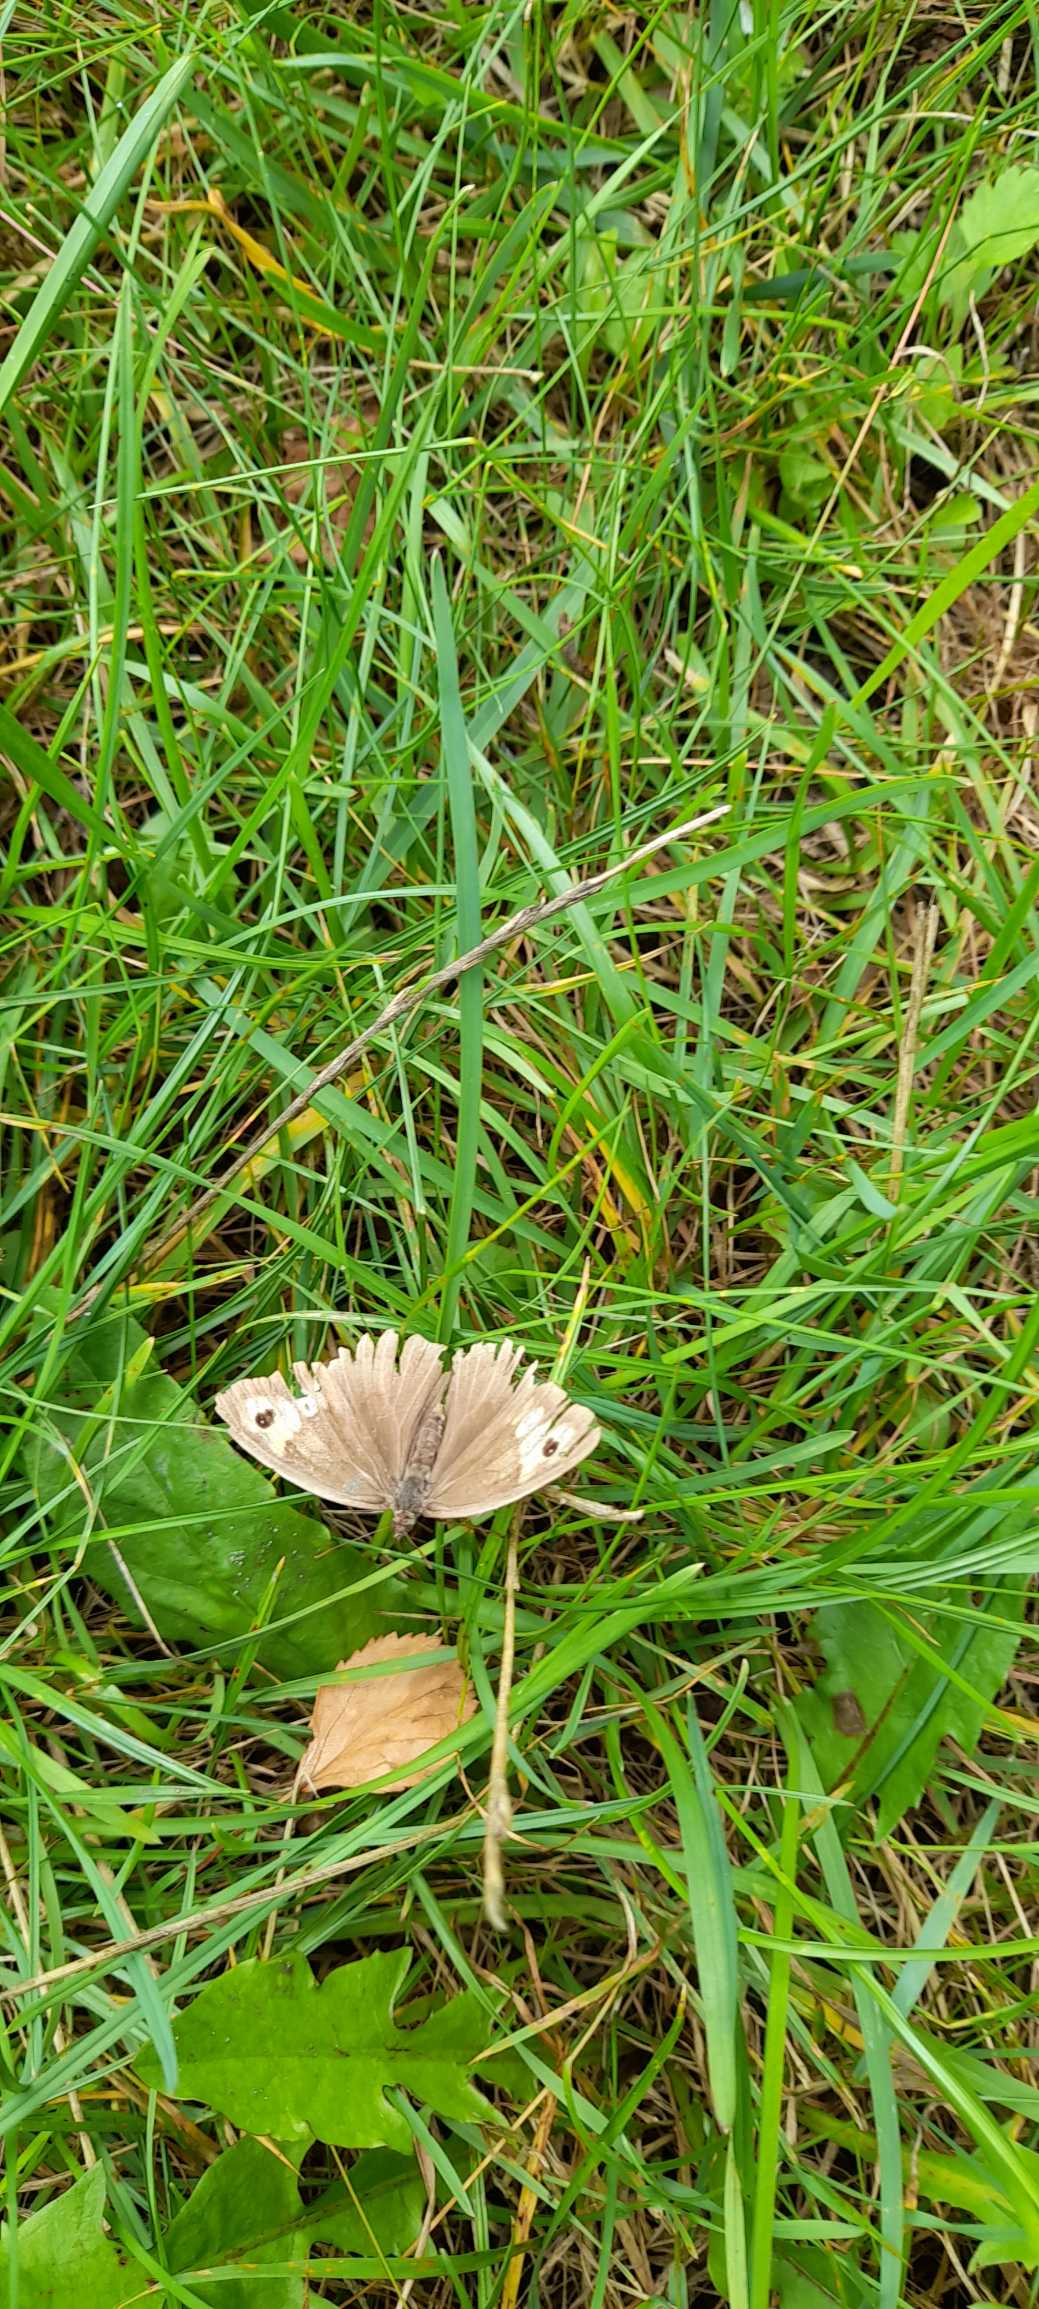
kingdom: Animalia
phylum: Arthropoda
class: Insecta
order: Lepidoptera
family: Nymphalidae
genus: Maniola
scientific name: Maniola jurtina
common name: Græsrandøje
